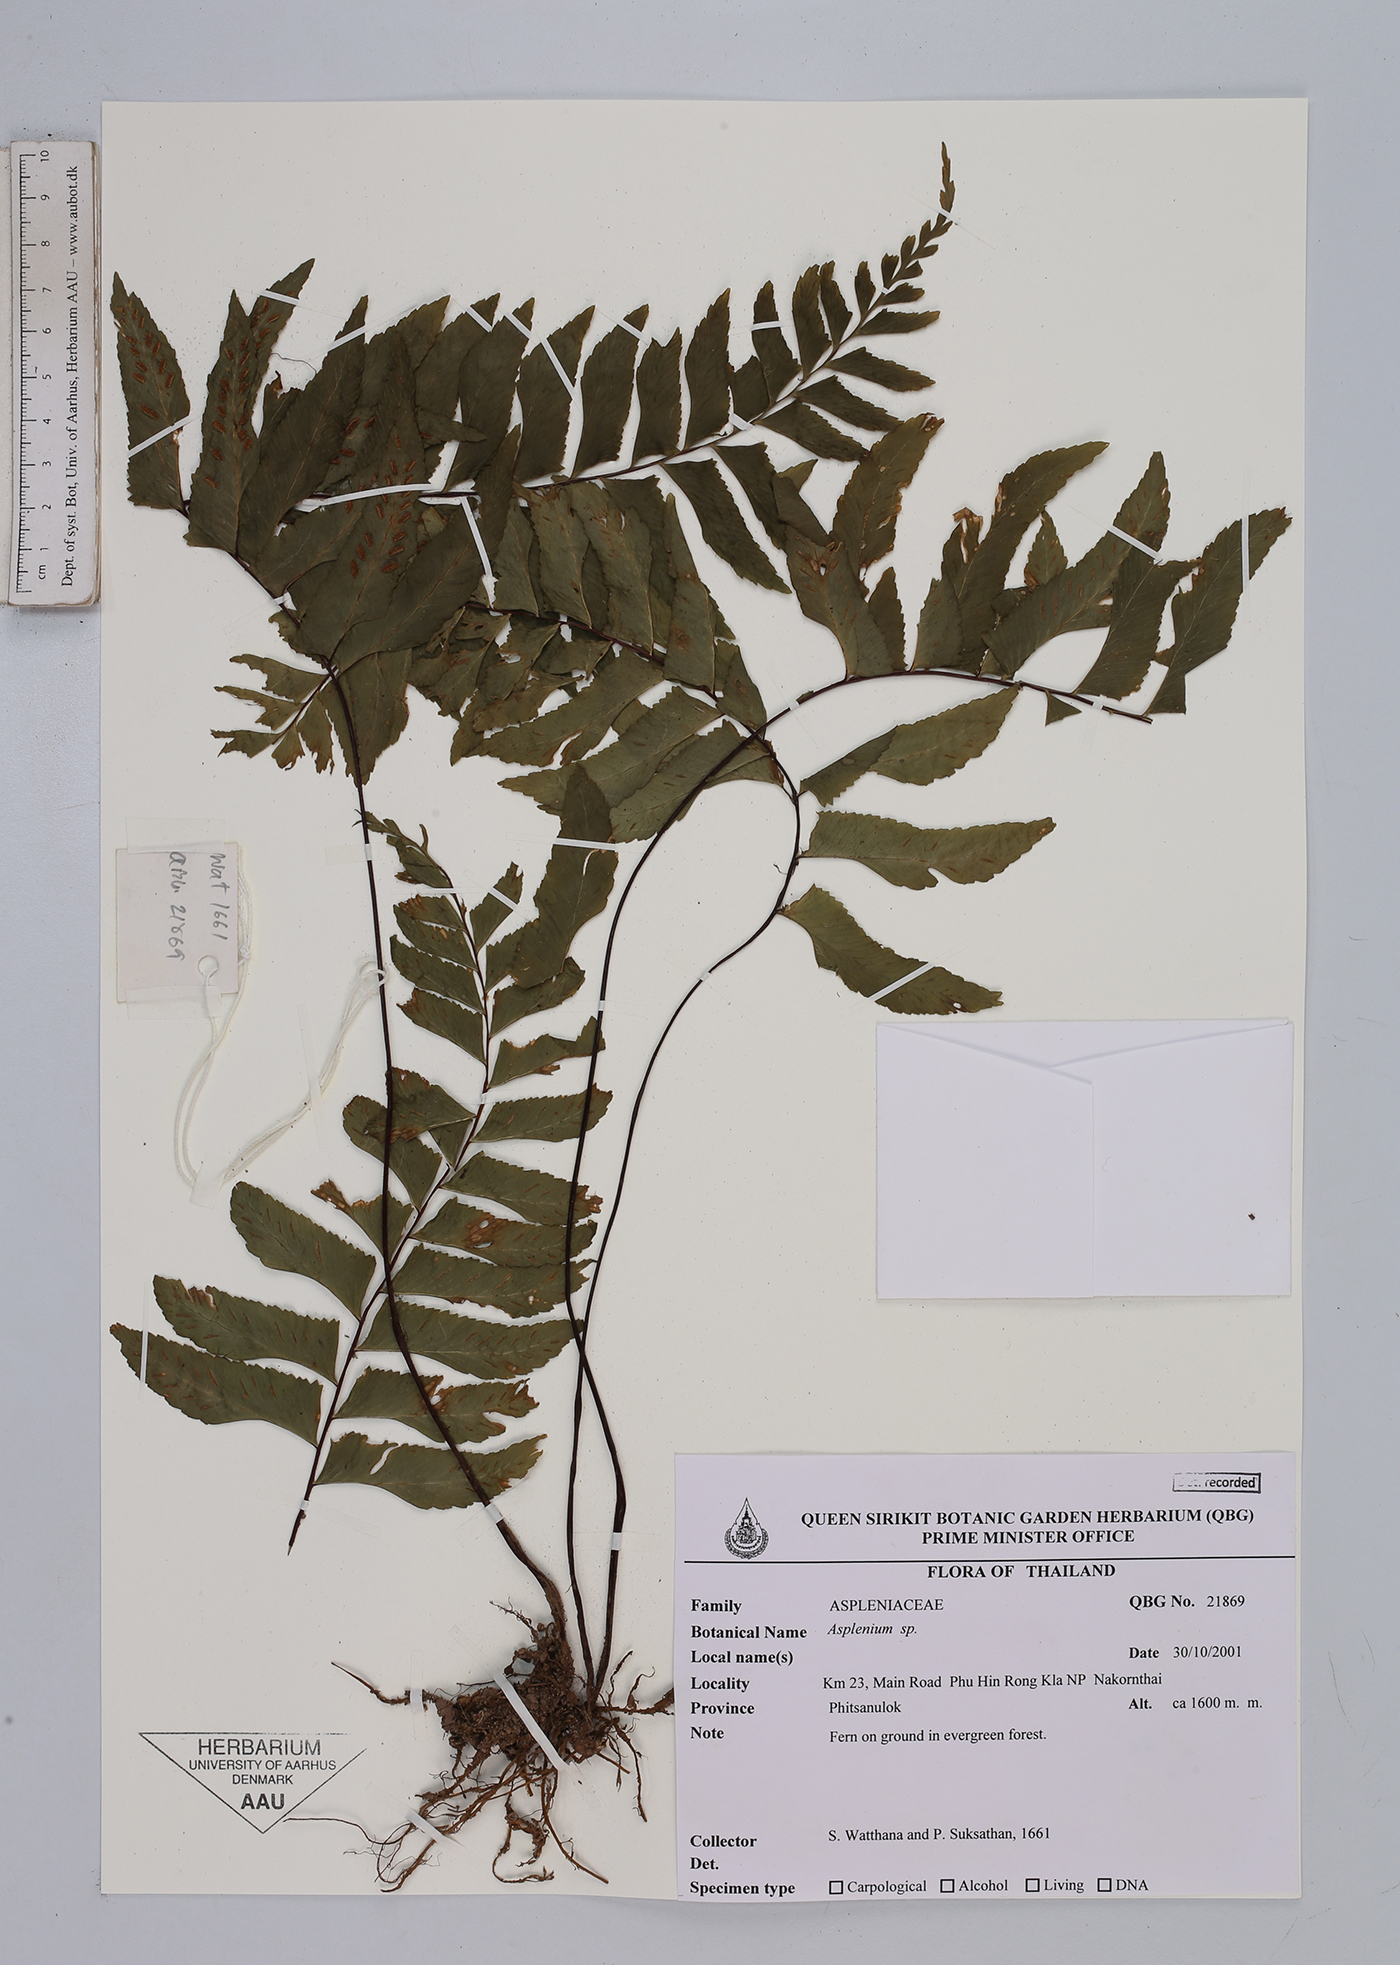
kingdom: Plantae
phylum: Tracheophyta
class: Polypodiopsida
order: Polypodiales
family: Aspleniaceae
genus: Asplenium
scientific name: Asplenium
